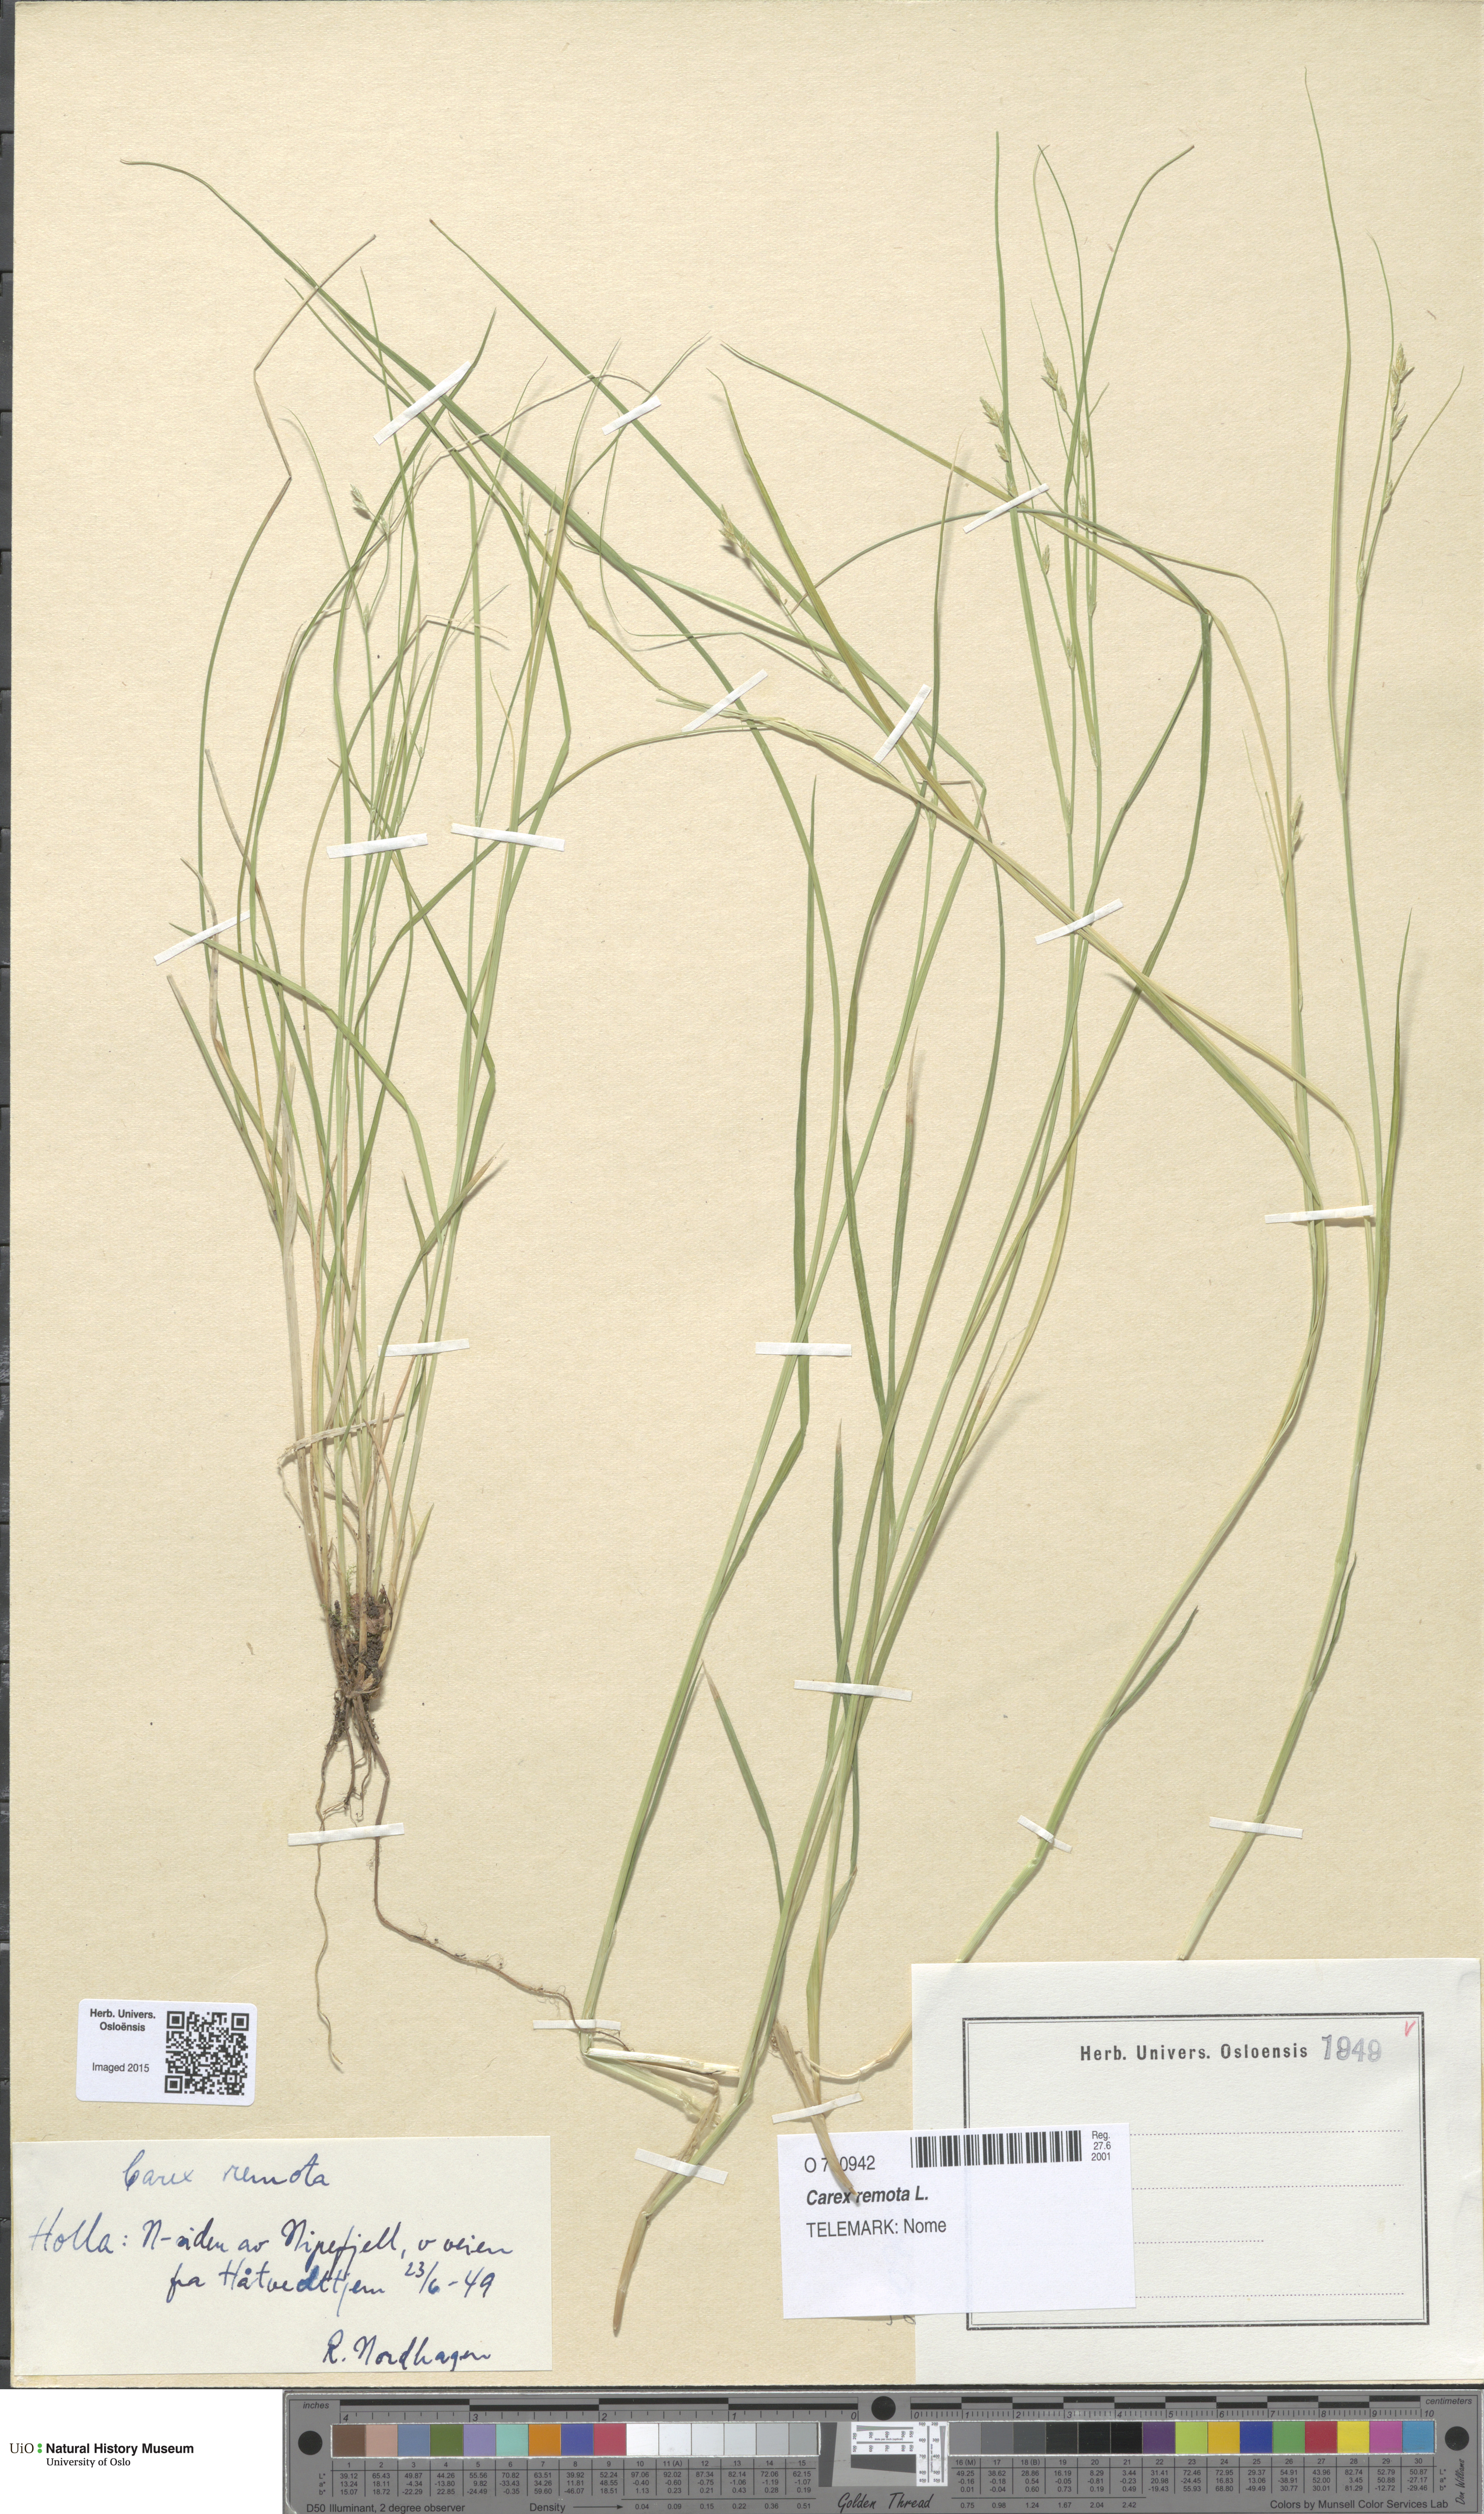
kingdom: Plantae
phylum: Tracheophyta
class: Liliopsida
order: Poales
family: Cyperaceae
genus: Carex
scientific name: Carex remota
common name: Remote sedge
